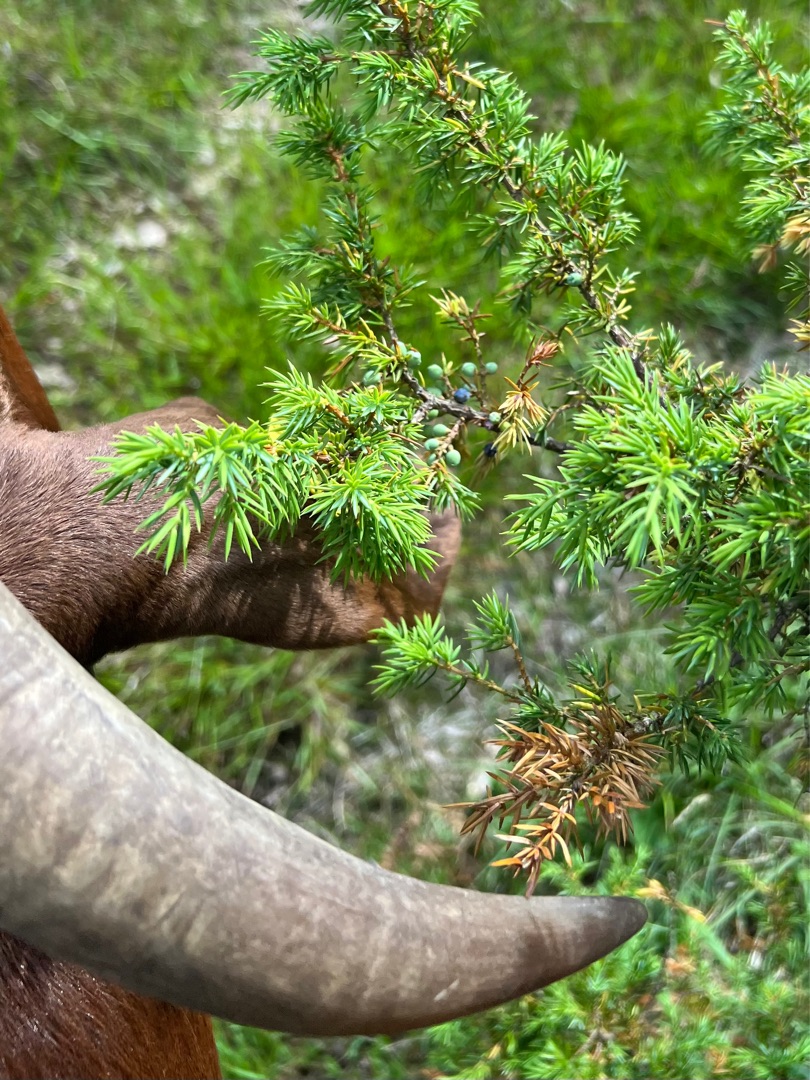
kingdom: Plantae
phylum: Tracheophyta
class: Pinopsida
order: Pinales
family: Cupressaceae
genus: Juniperus
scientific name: Juniperus communis
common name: Almindelig ene
